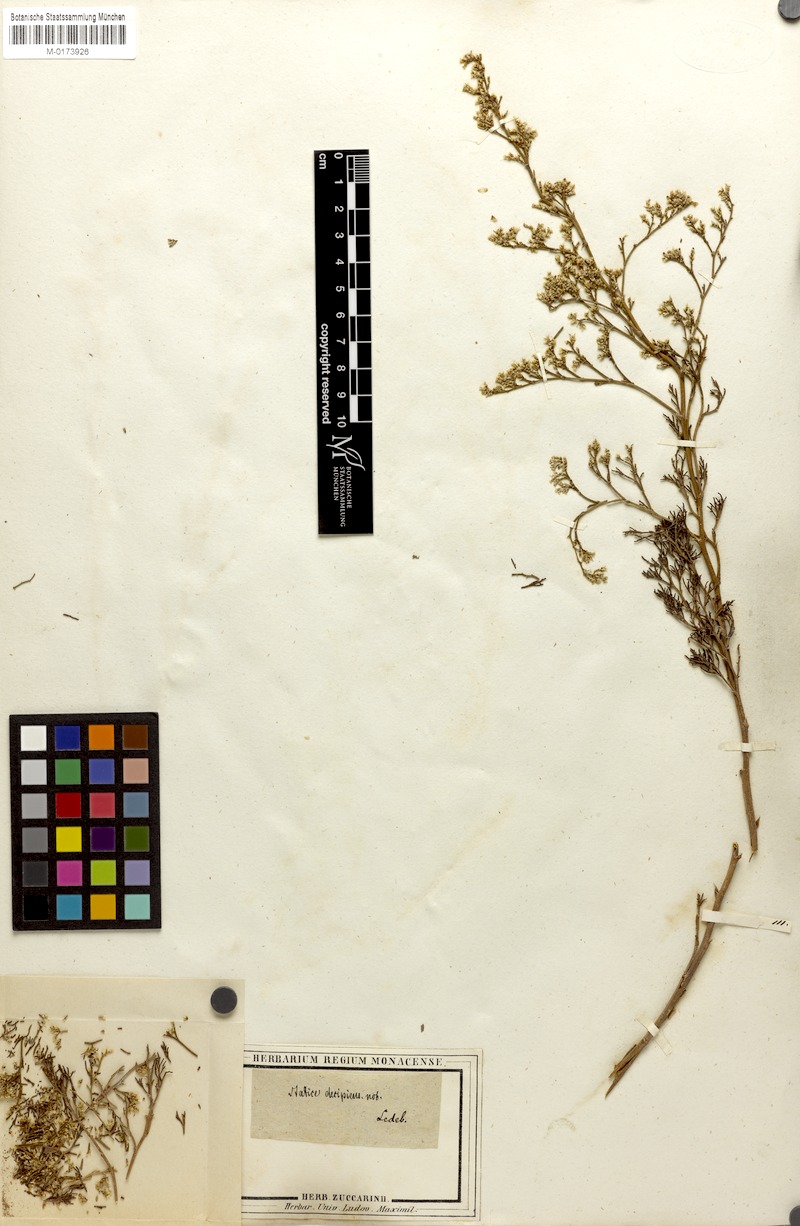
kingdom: Plantae
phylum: Tracheophyta
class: Magnoliopsida
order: Caryophyllales
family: Plumbaginaceae
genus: Limonium
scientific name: Limonium coralloides
